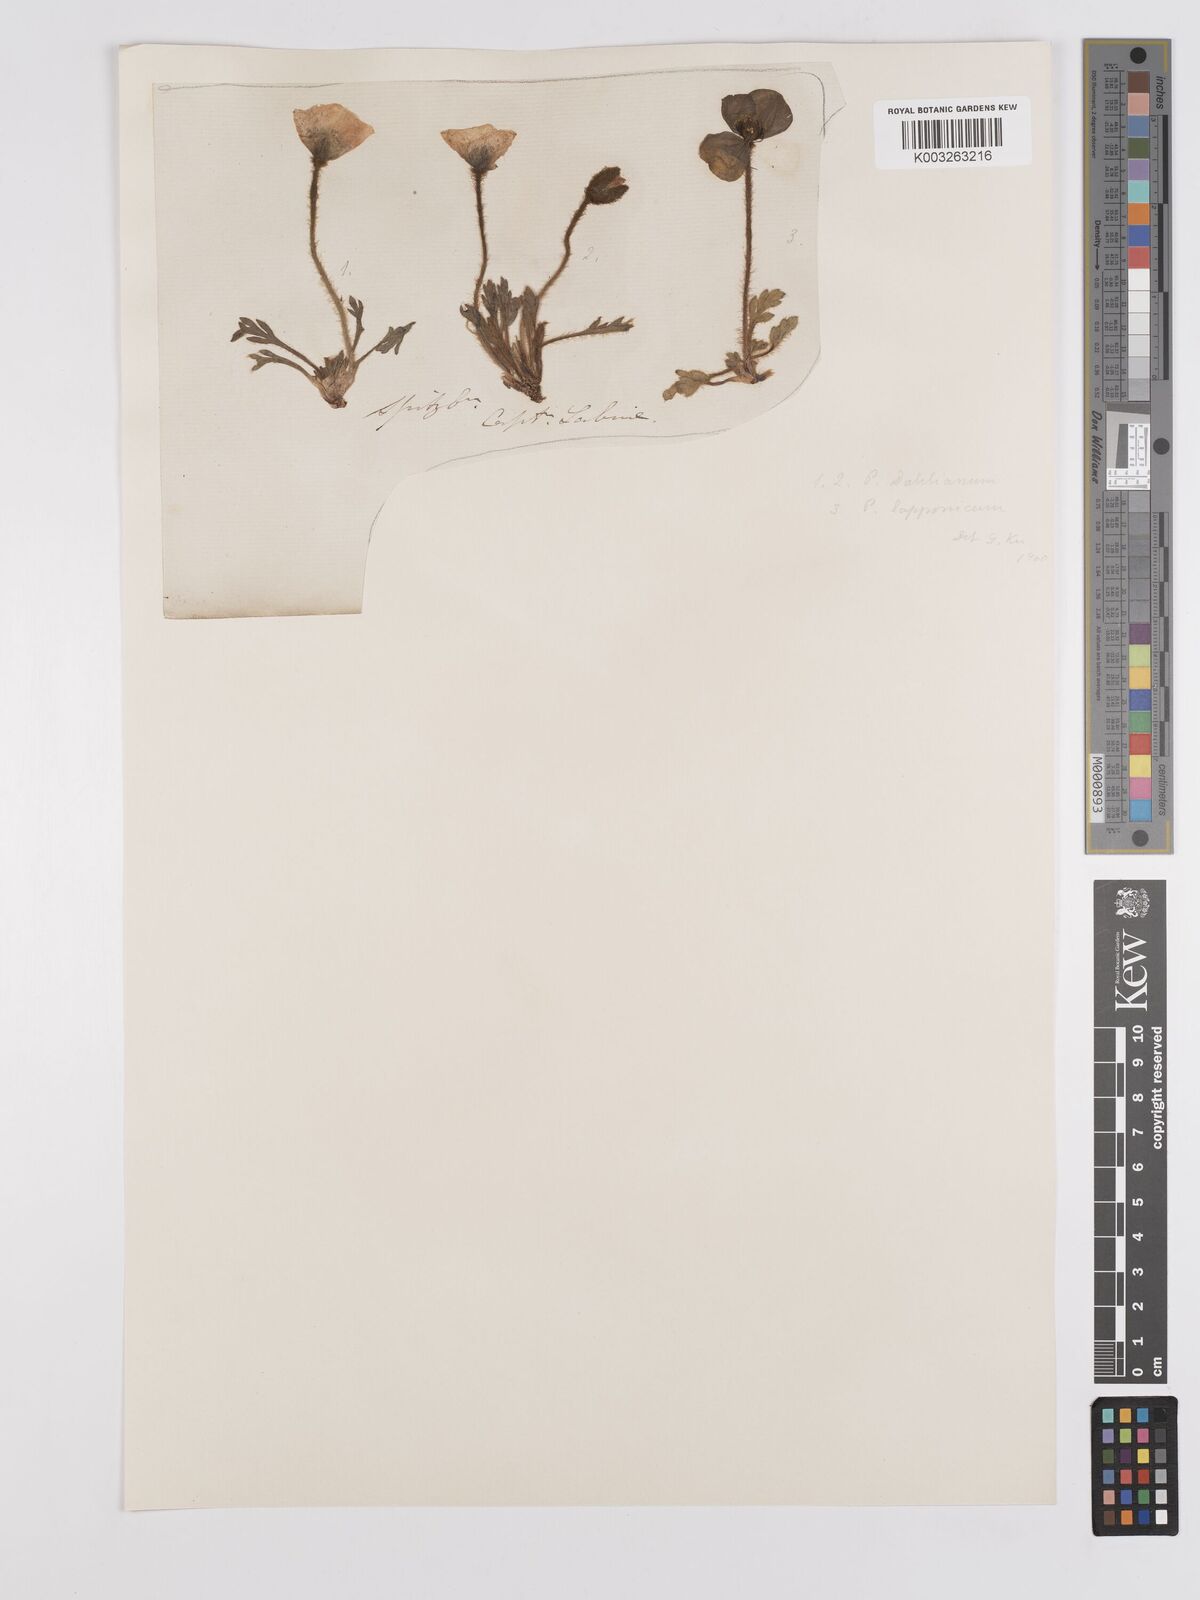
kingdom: Plantae
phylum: Tracheophyta
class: Magnoliopsida
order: Ranunculales
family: Papaveraceae
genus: Papaver
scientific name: Papaver radicatum
